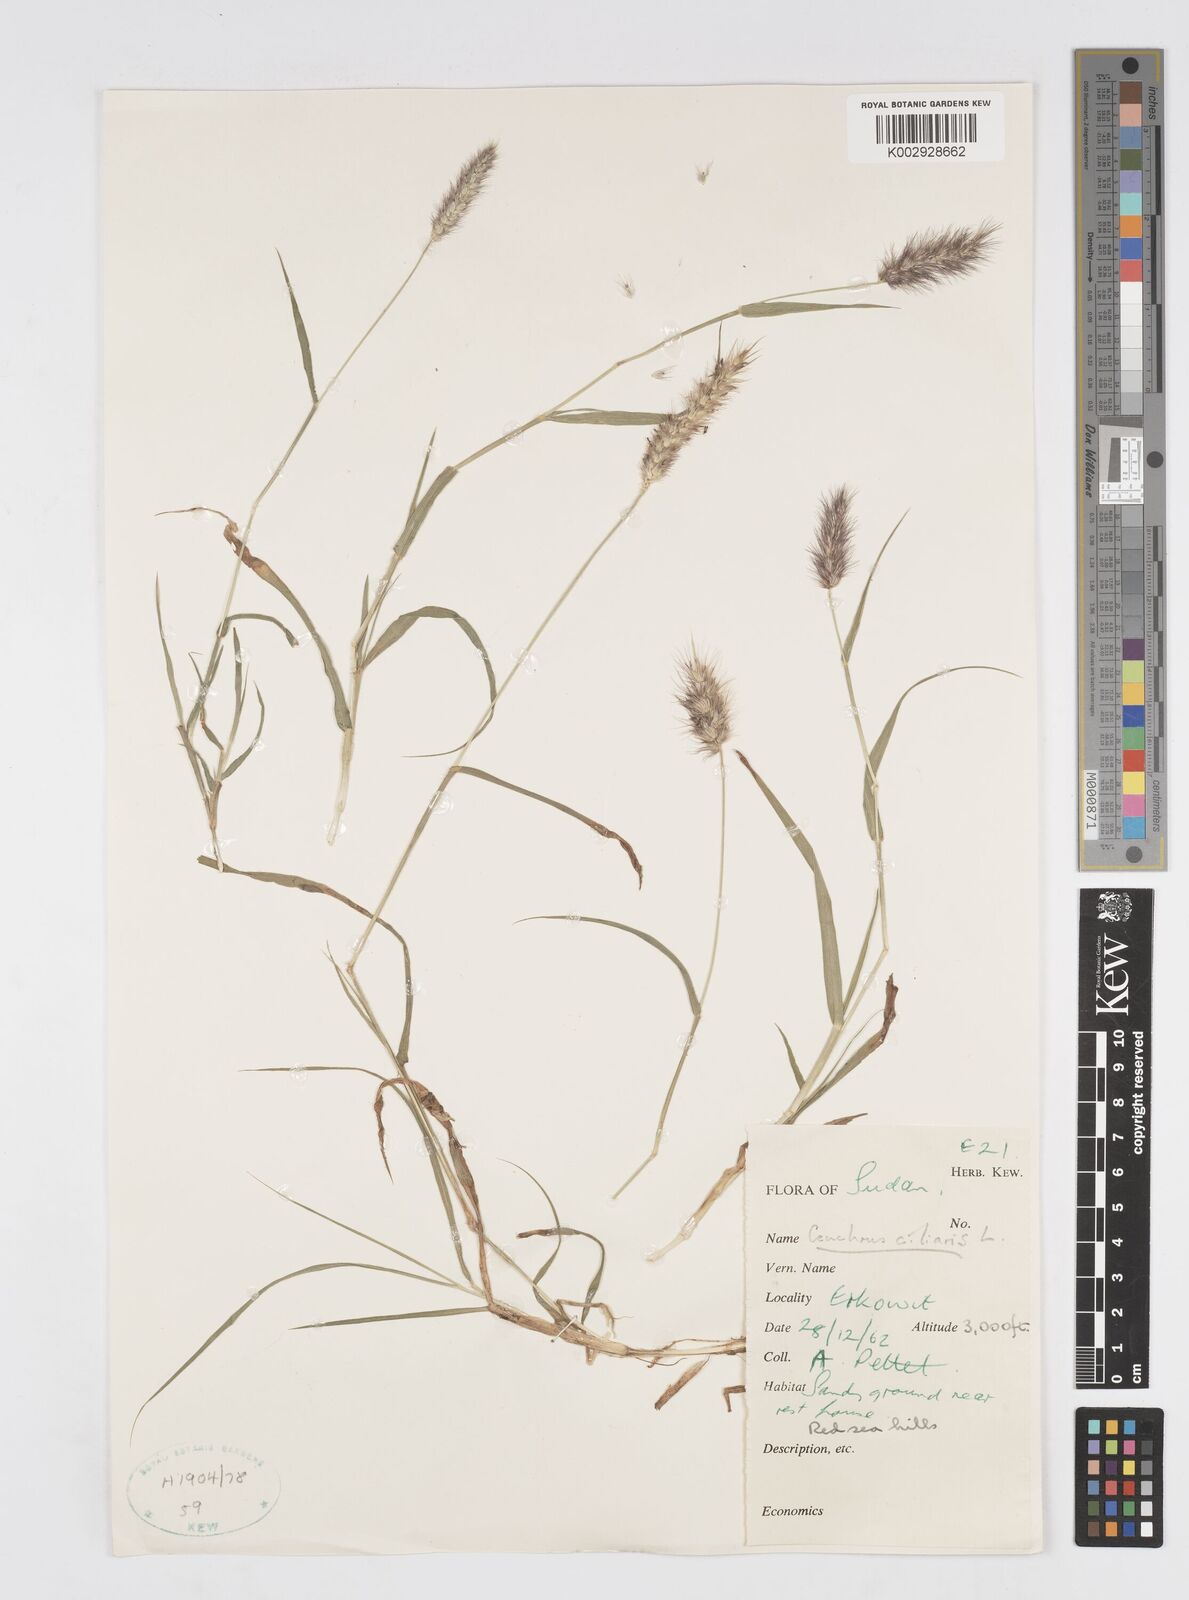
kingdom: Plantae
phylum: Tracheophyta
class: Liliopsida
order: Poales
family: Poaceae
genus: Cenchrus
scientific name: Cenchrus ciliaris
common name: Buffelgrass
